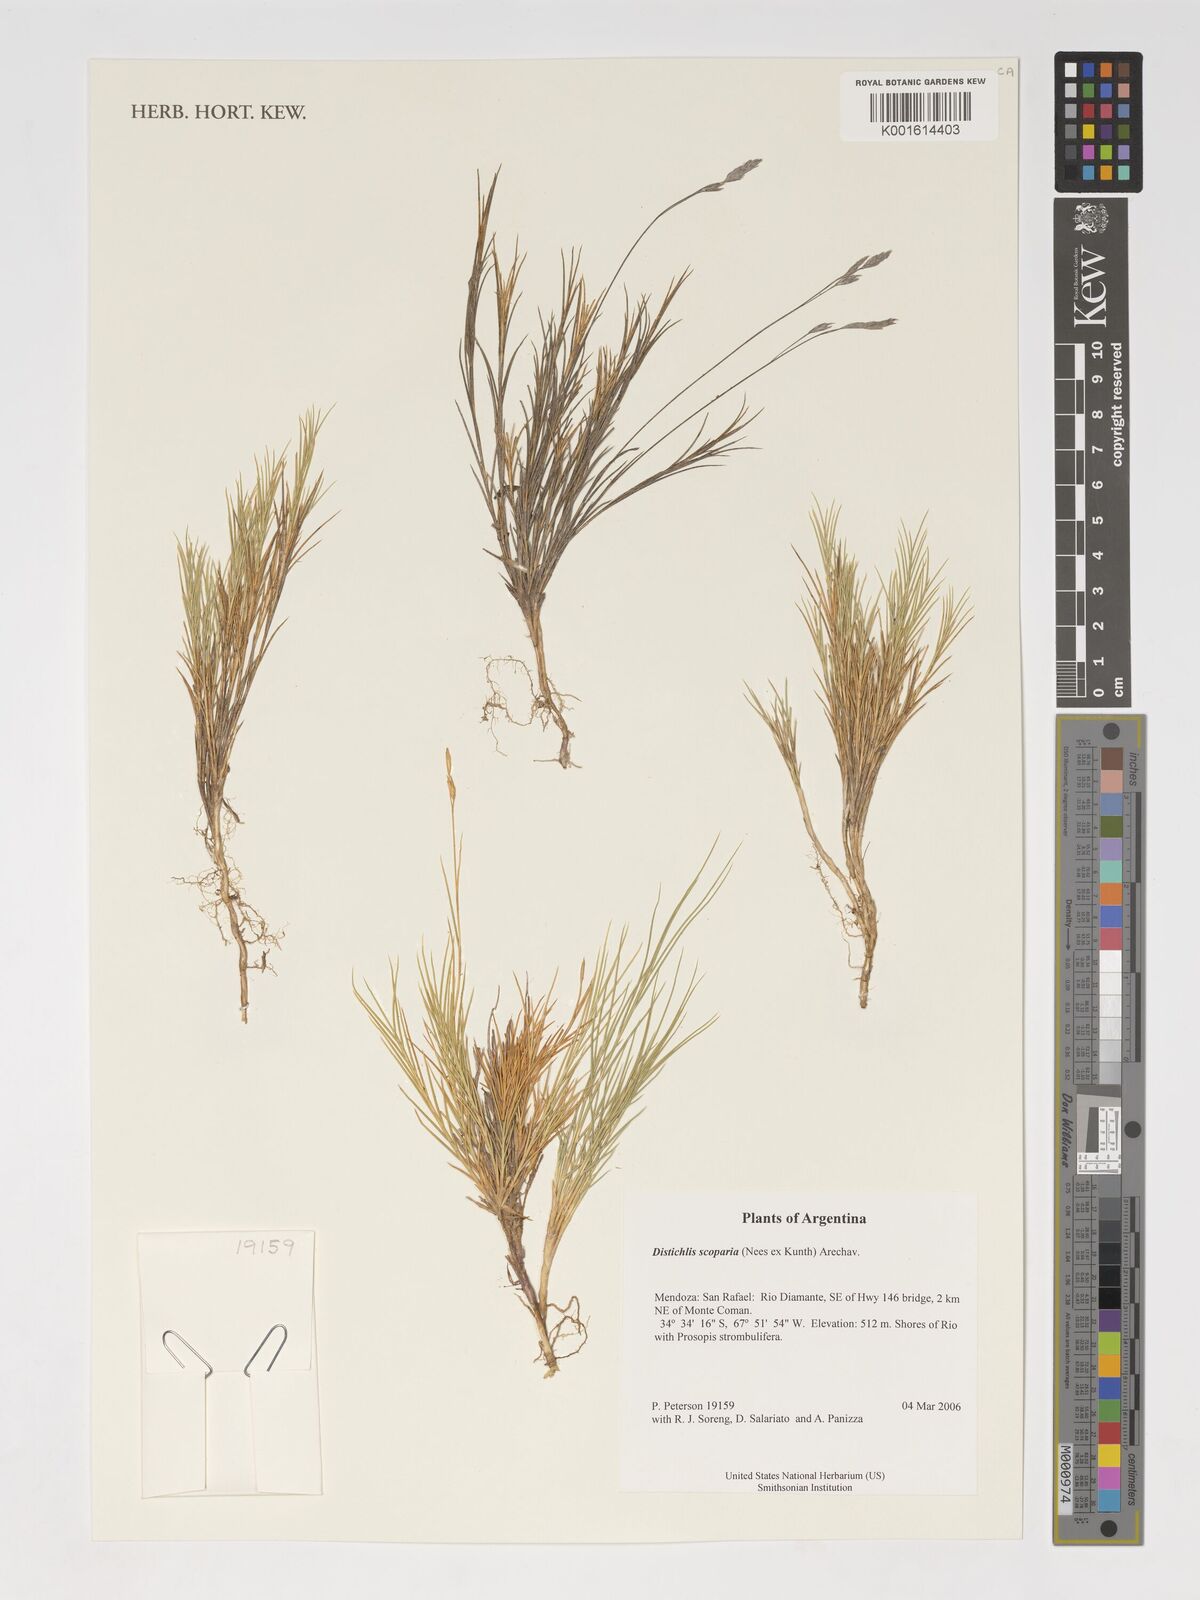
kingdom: Plantae
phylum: Tracheophyta
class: Liliopsida
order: Poales
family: Poaceae
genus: Distichlis
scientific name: Distichlis scoparia
